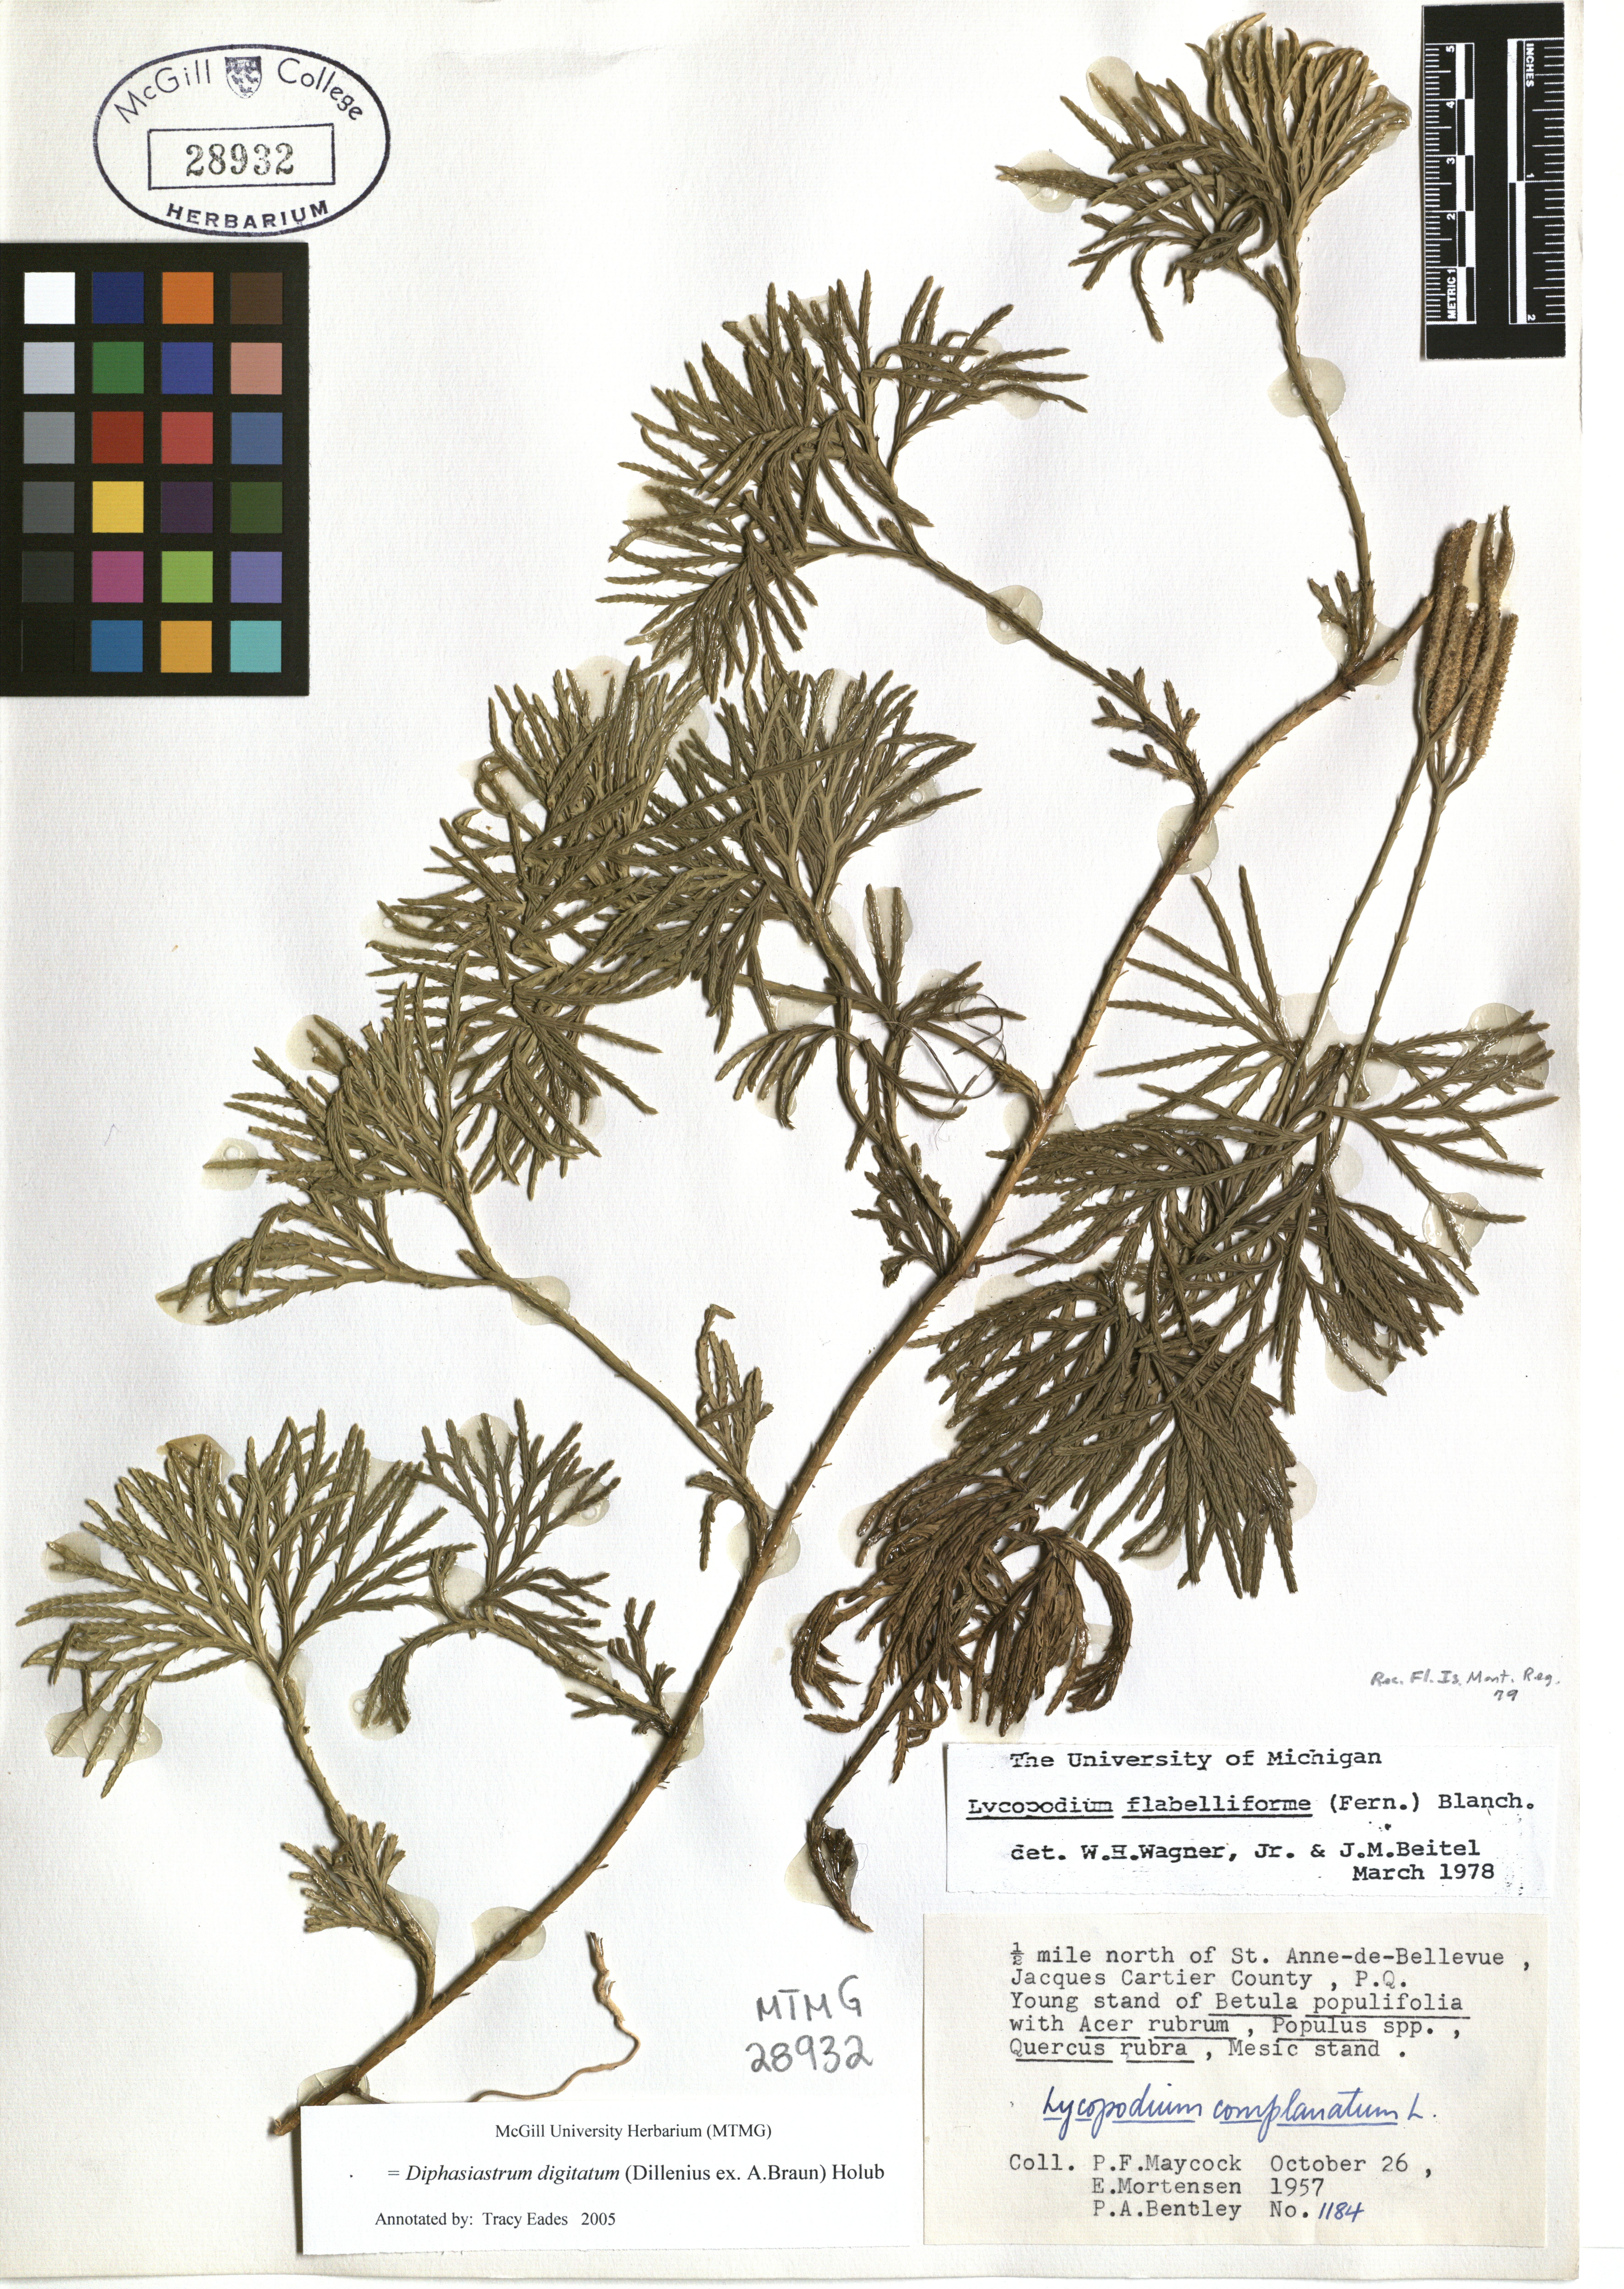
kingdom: Plantae
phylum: Tracheophyta
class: Lycopodiopsida
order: Lycopodiales
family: Lycopodiaceae
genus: Diphasiastrum
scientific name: Diphasiastrum digitatum
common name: Southern running-pine
